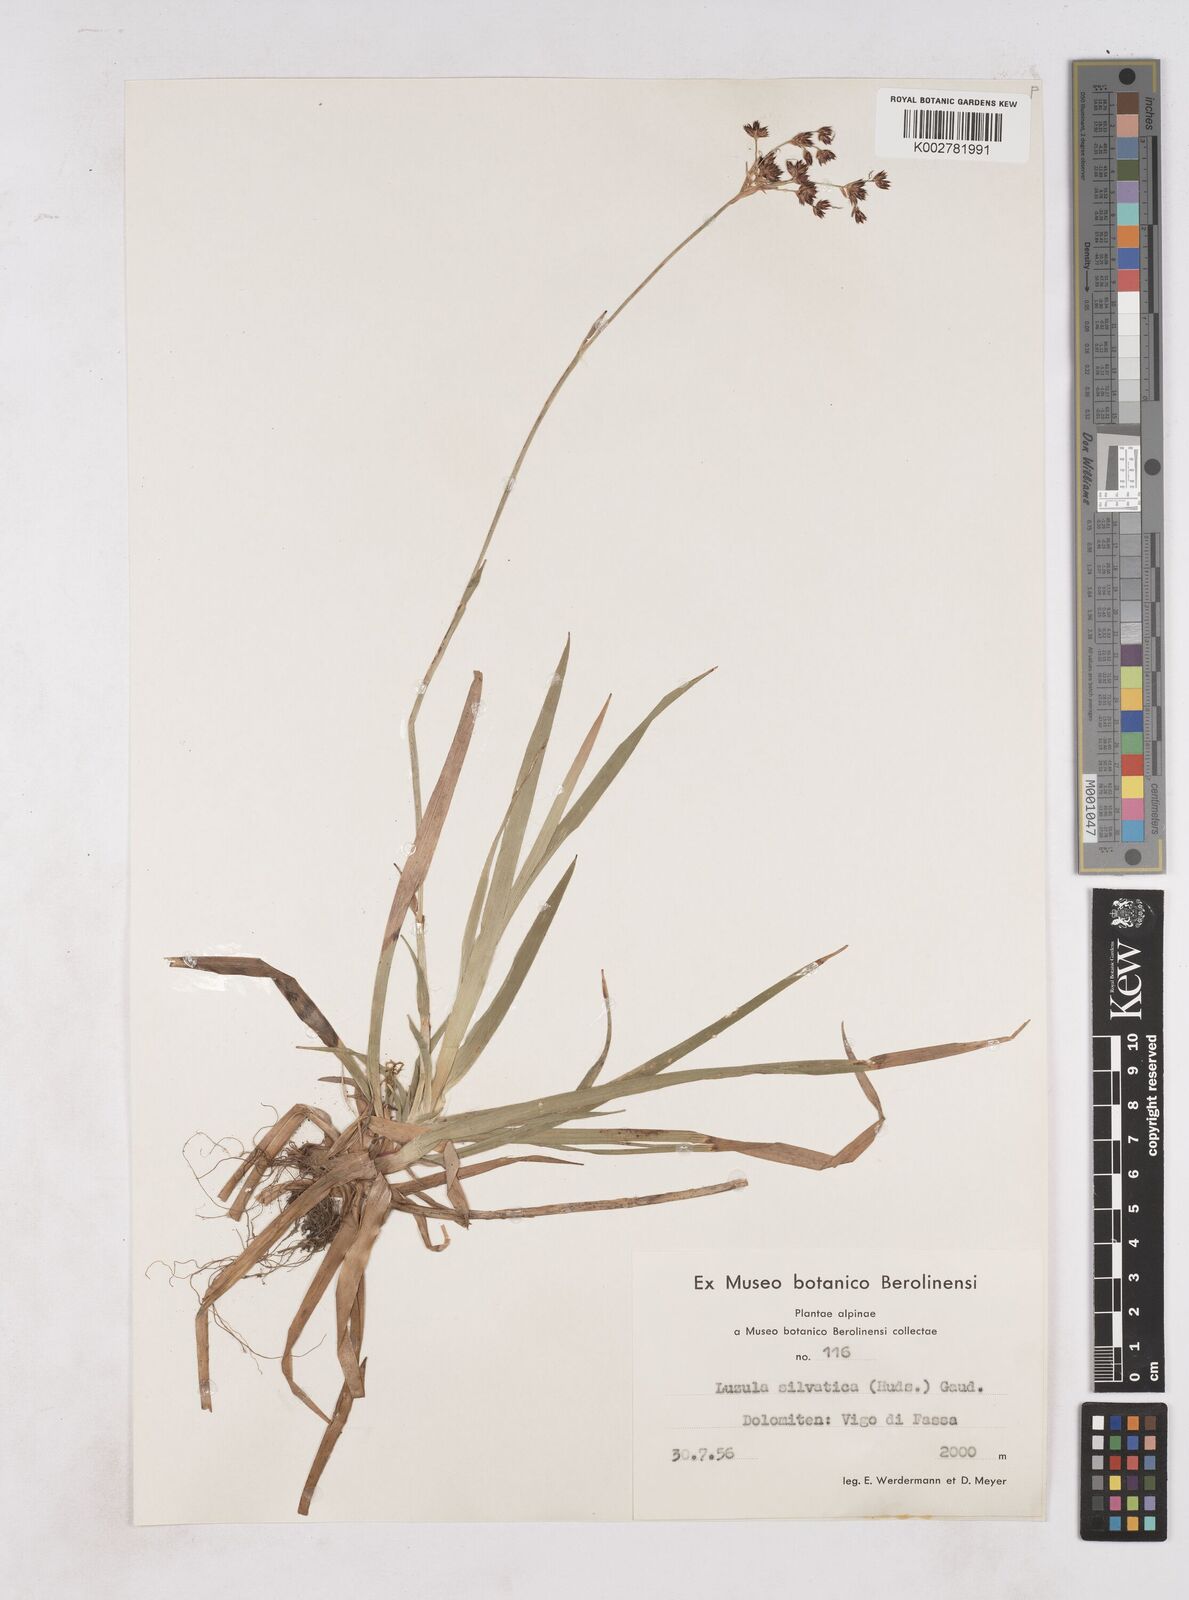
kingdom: Plantae
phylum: Tracheophyta
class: Liliopsida
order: Poales
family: Juncaceae
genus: Luzula
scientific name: Luzula sylvatica
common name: Great wood-rush
